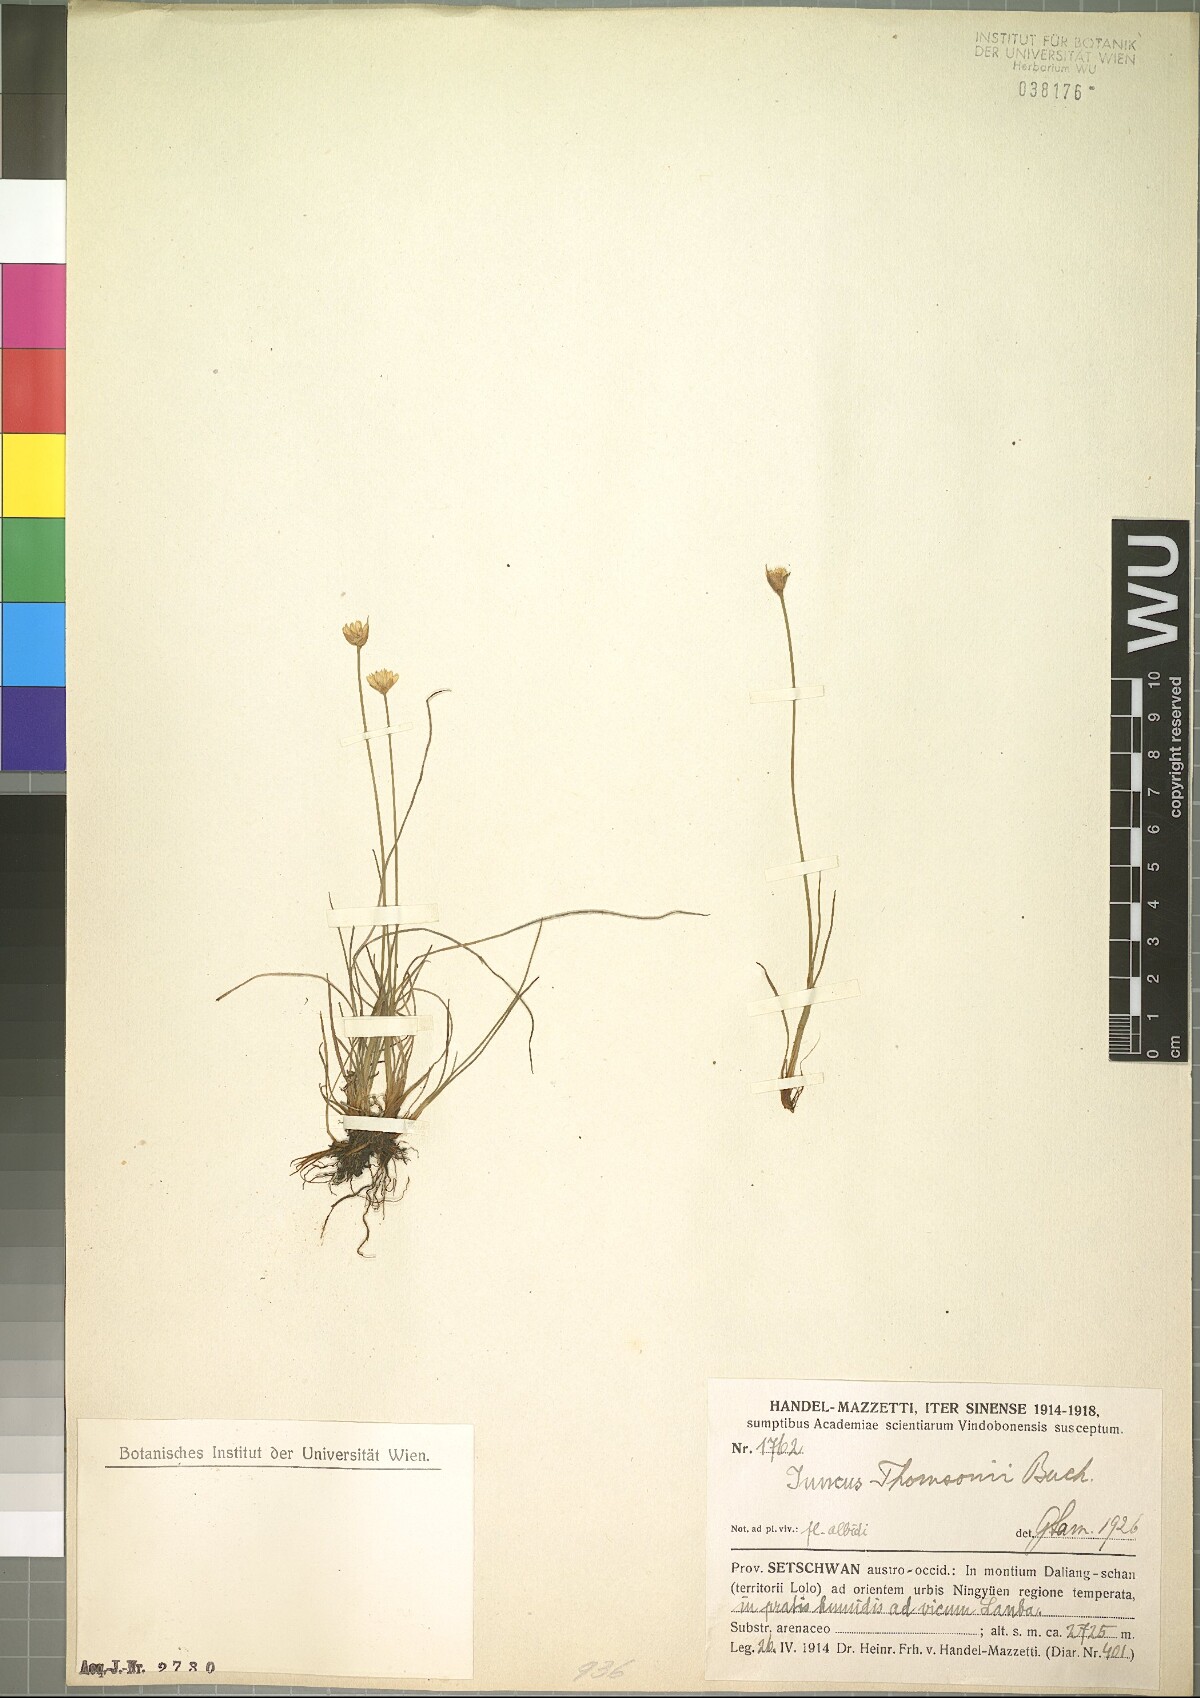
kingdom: Plantae
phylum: Tracheophyta
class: Liliopsida
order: Poales
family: Juncaceae
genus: Juncus
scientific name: Juncus thomsonii
